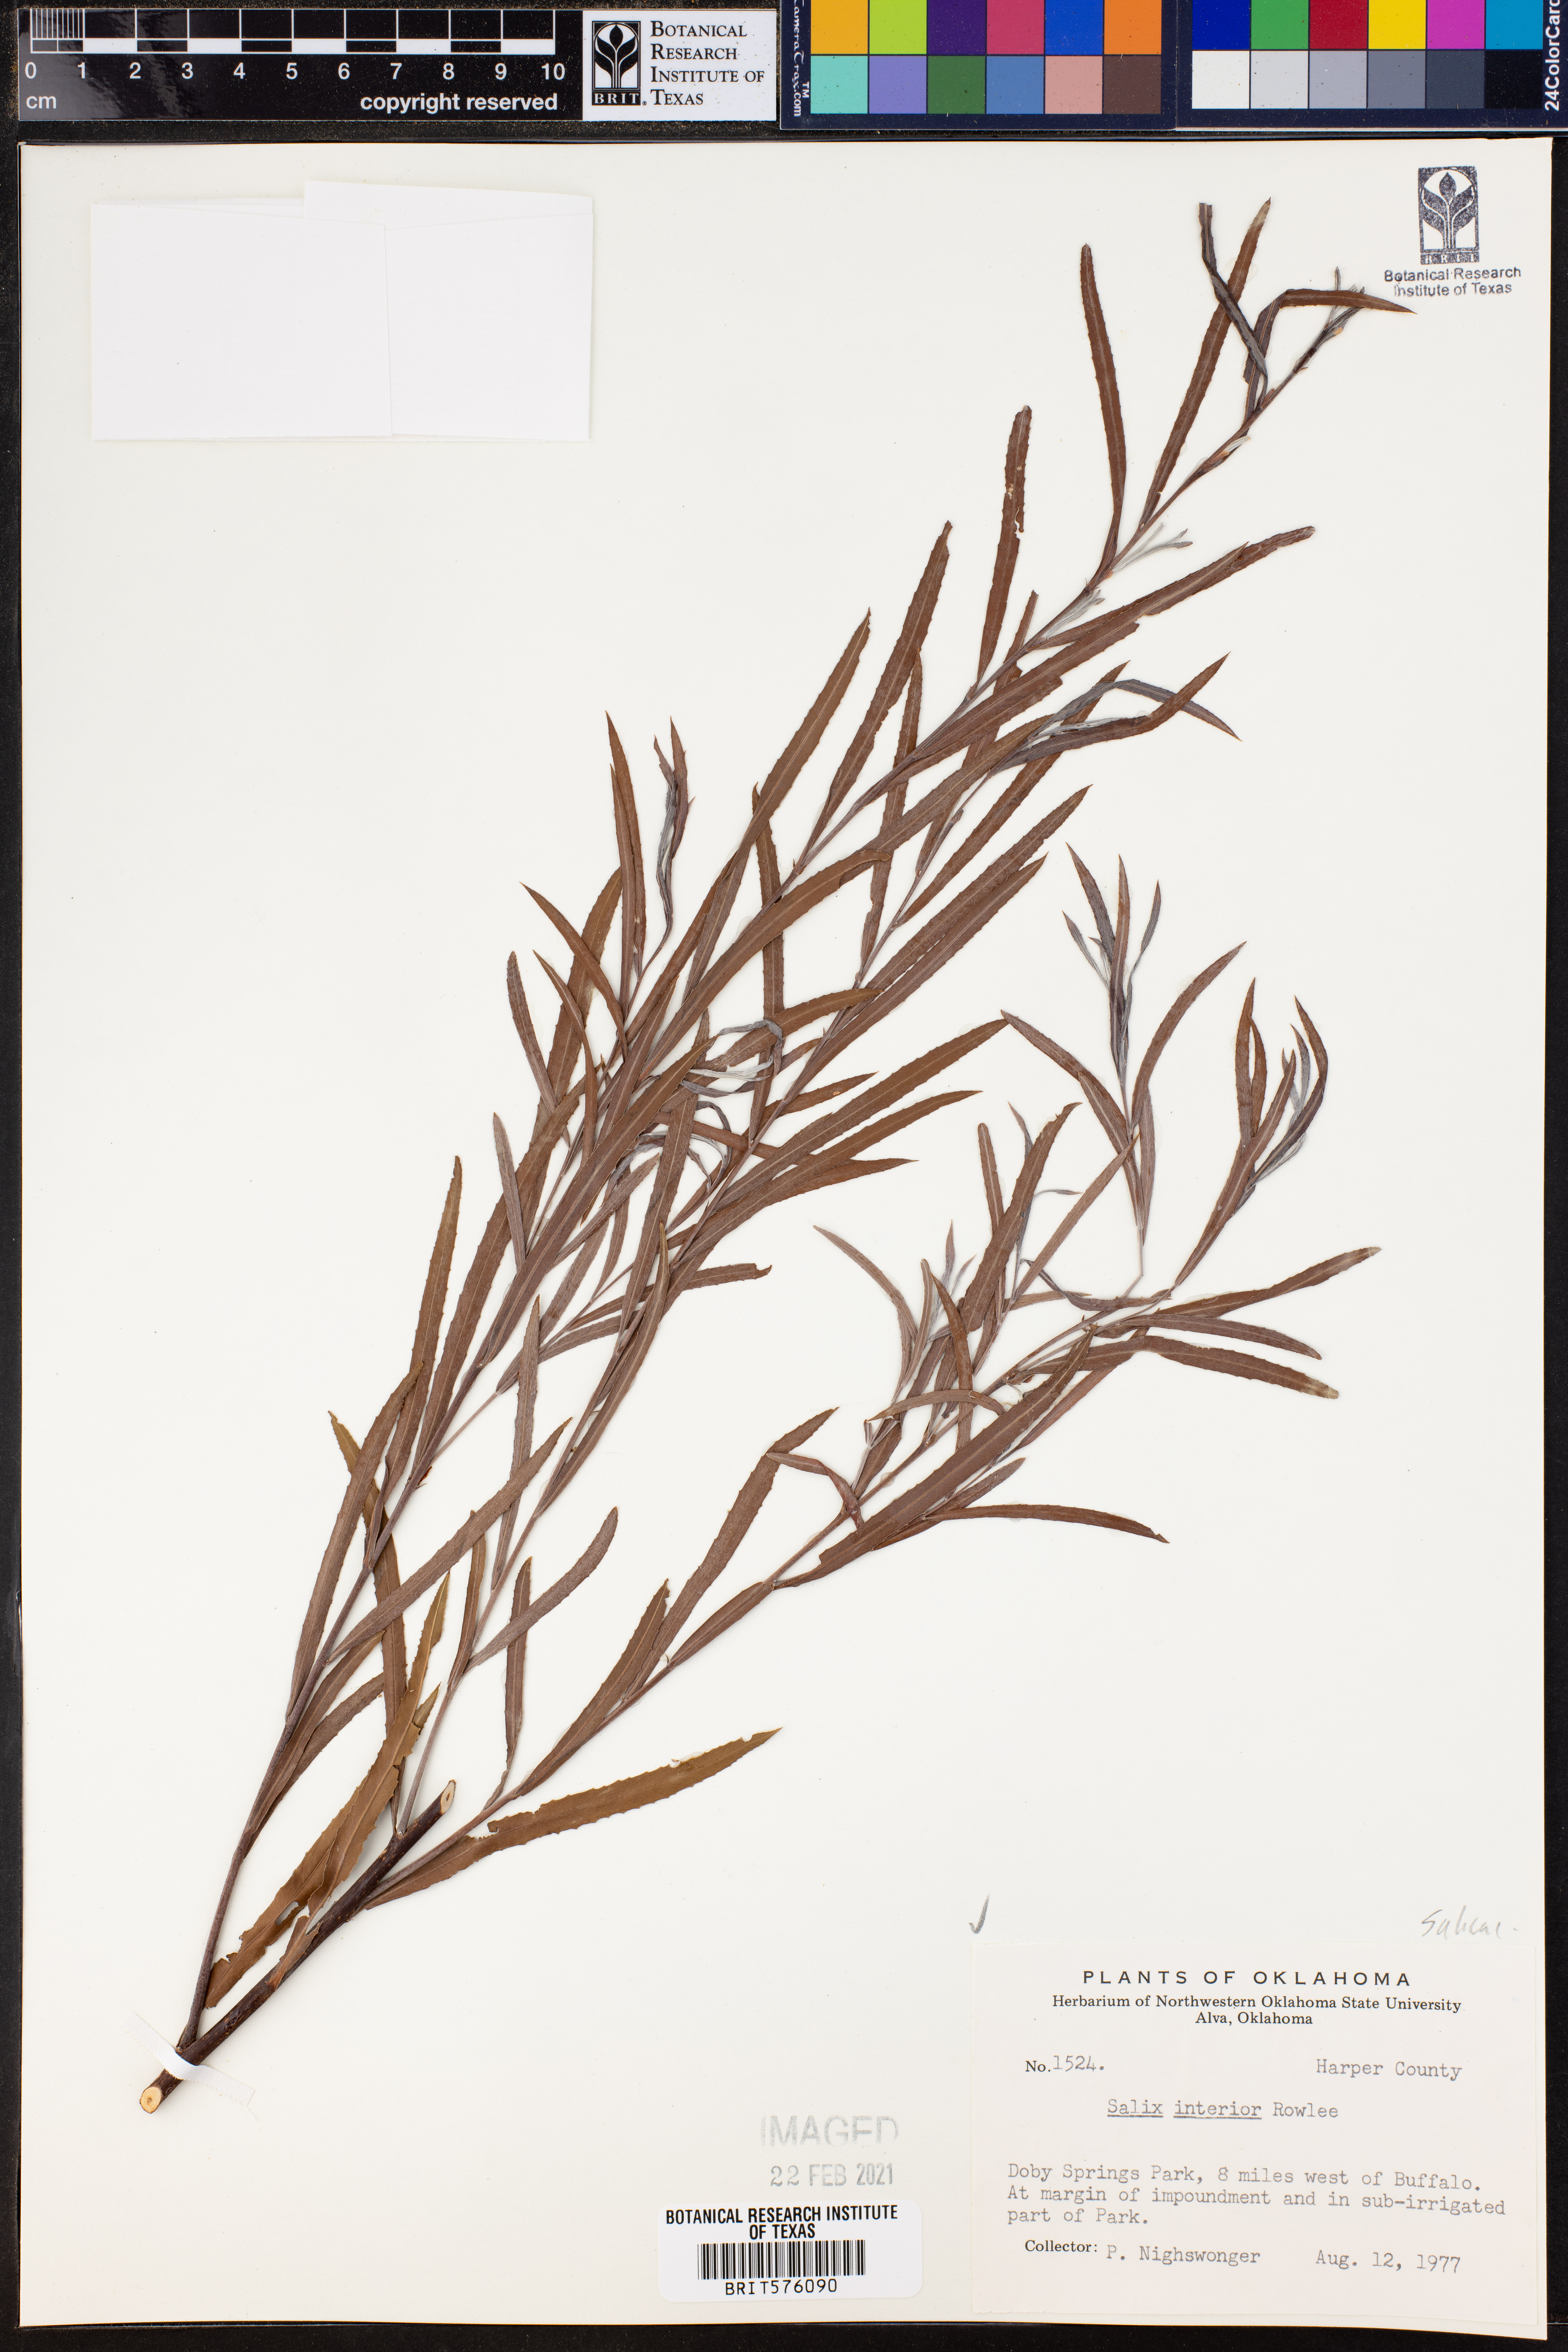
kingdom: Plantae
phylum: Tracheophyta
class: Magnoliopsida
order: Malpighiales
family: Salicaceae
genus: Salix
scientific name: Salix interior
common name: Sandbar willow
